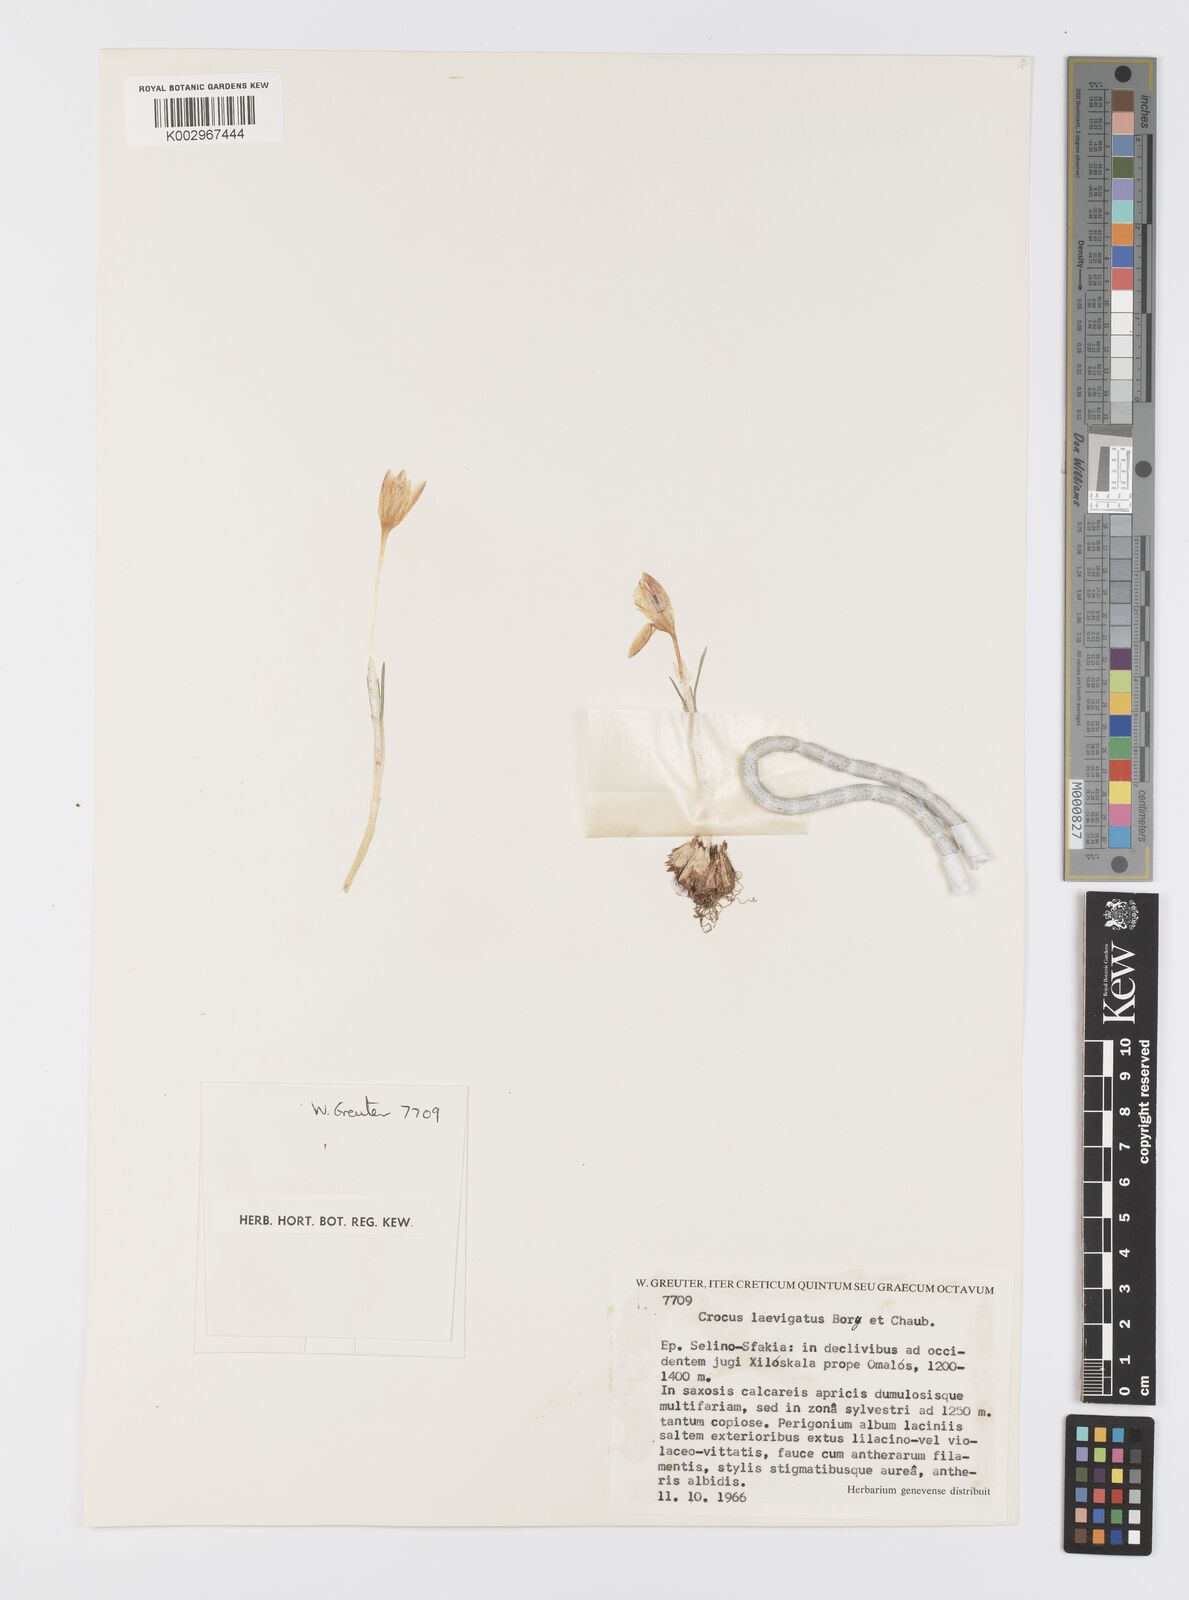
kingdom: Plantae
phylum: Tracheophyta
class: Liliopsida
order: Asparagales
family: Iridaceae
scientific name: Iridaceae
